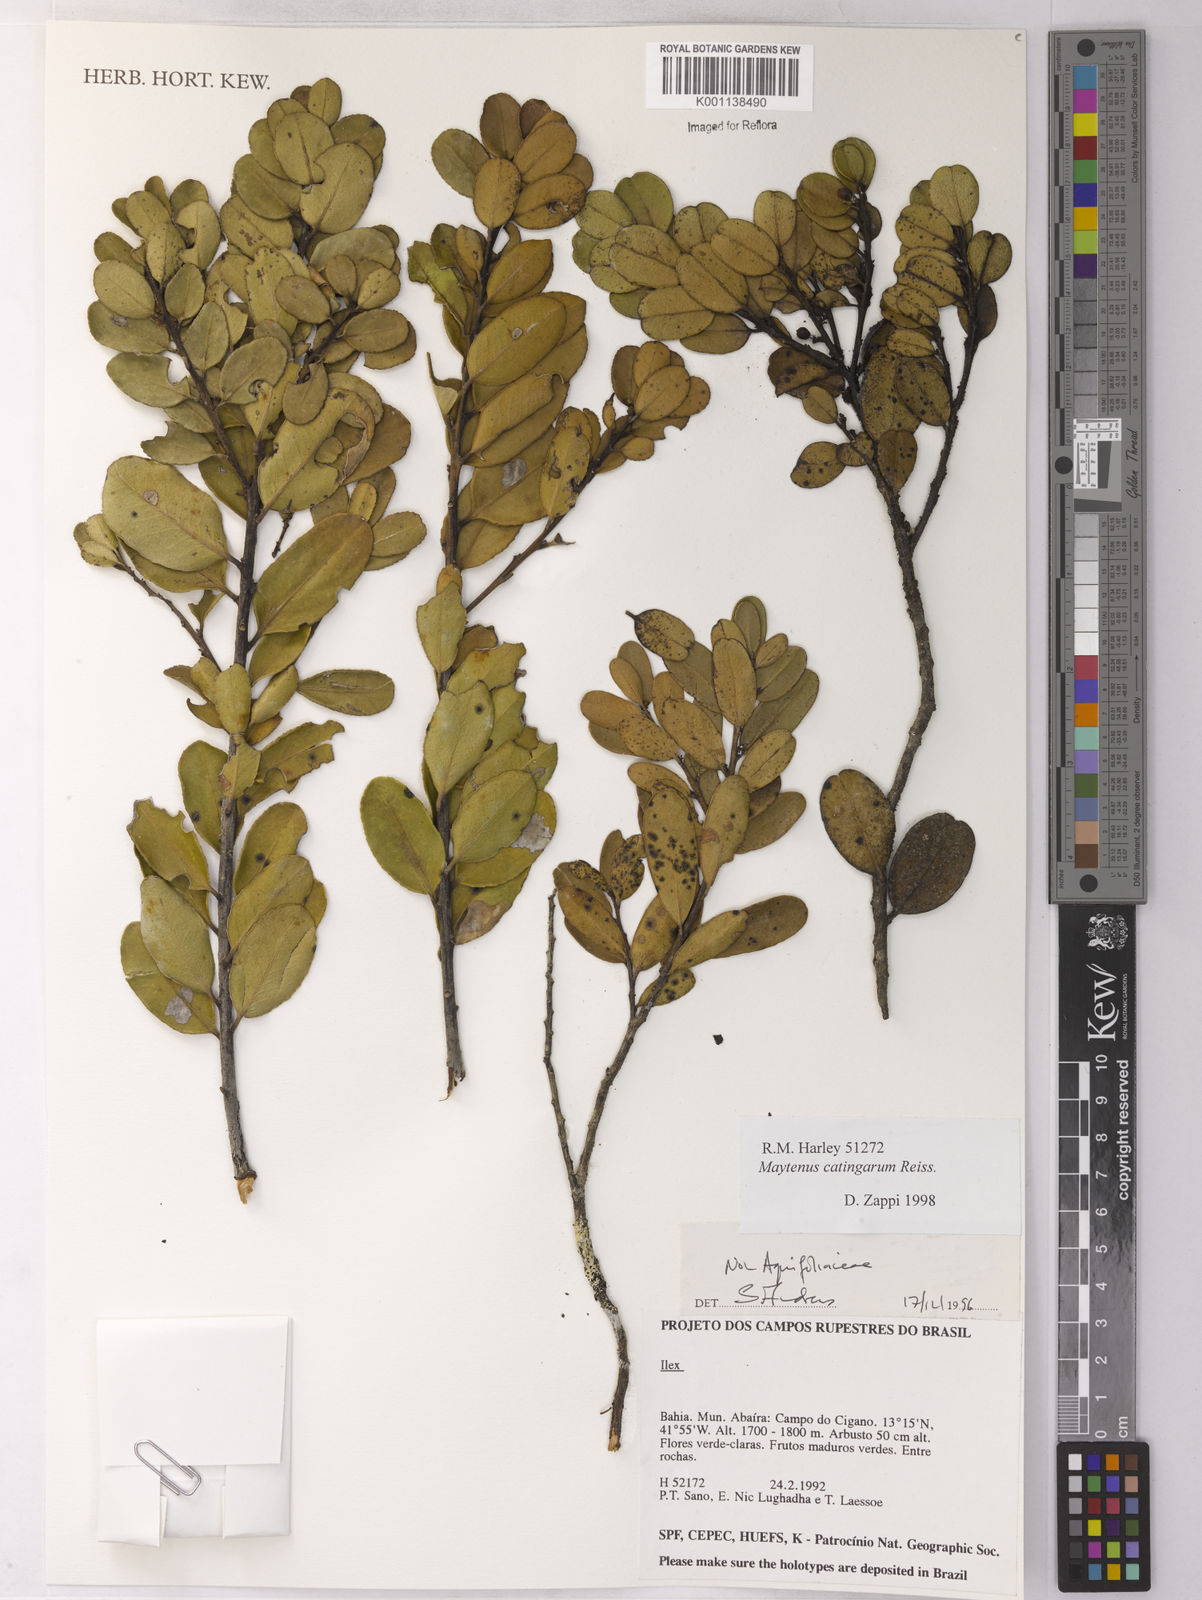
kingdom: Plantae
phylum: Tracheophyta
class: Magnoliopsida
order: Celastrales
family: Celastraceae
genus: Monteverdia
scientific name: Monteverdia catingarum
